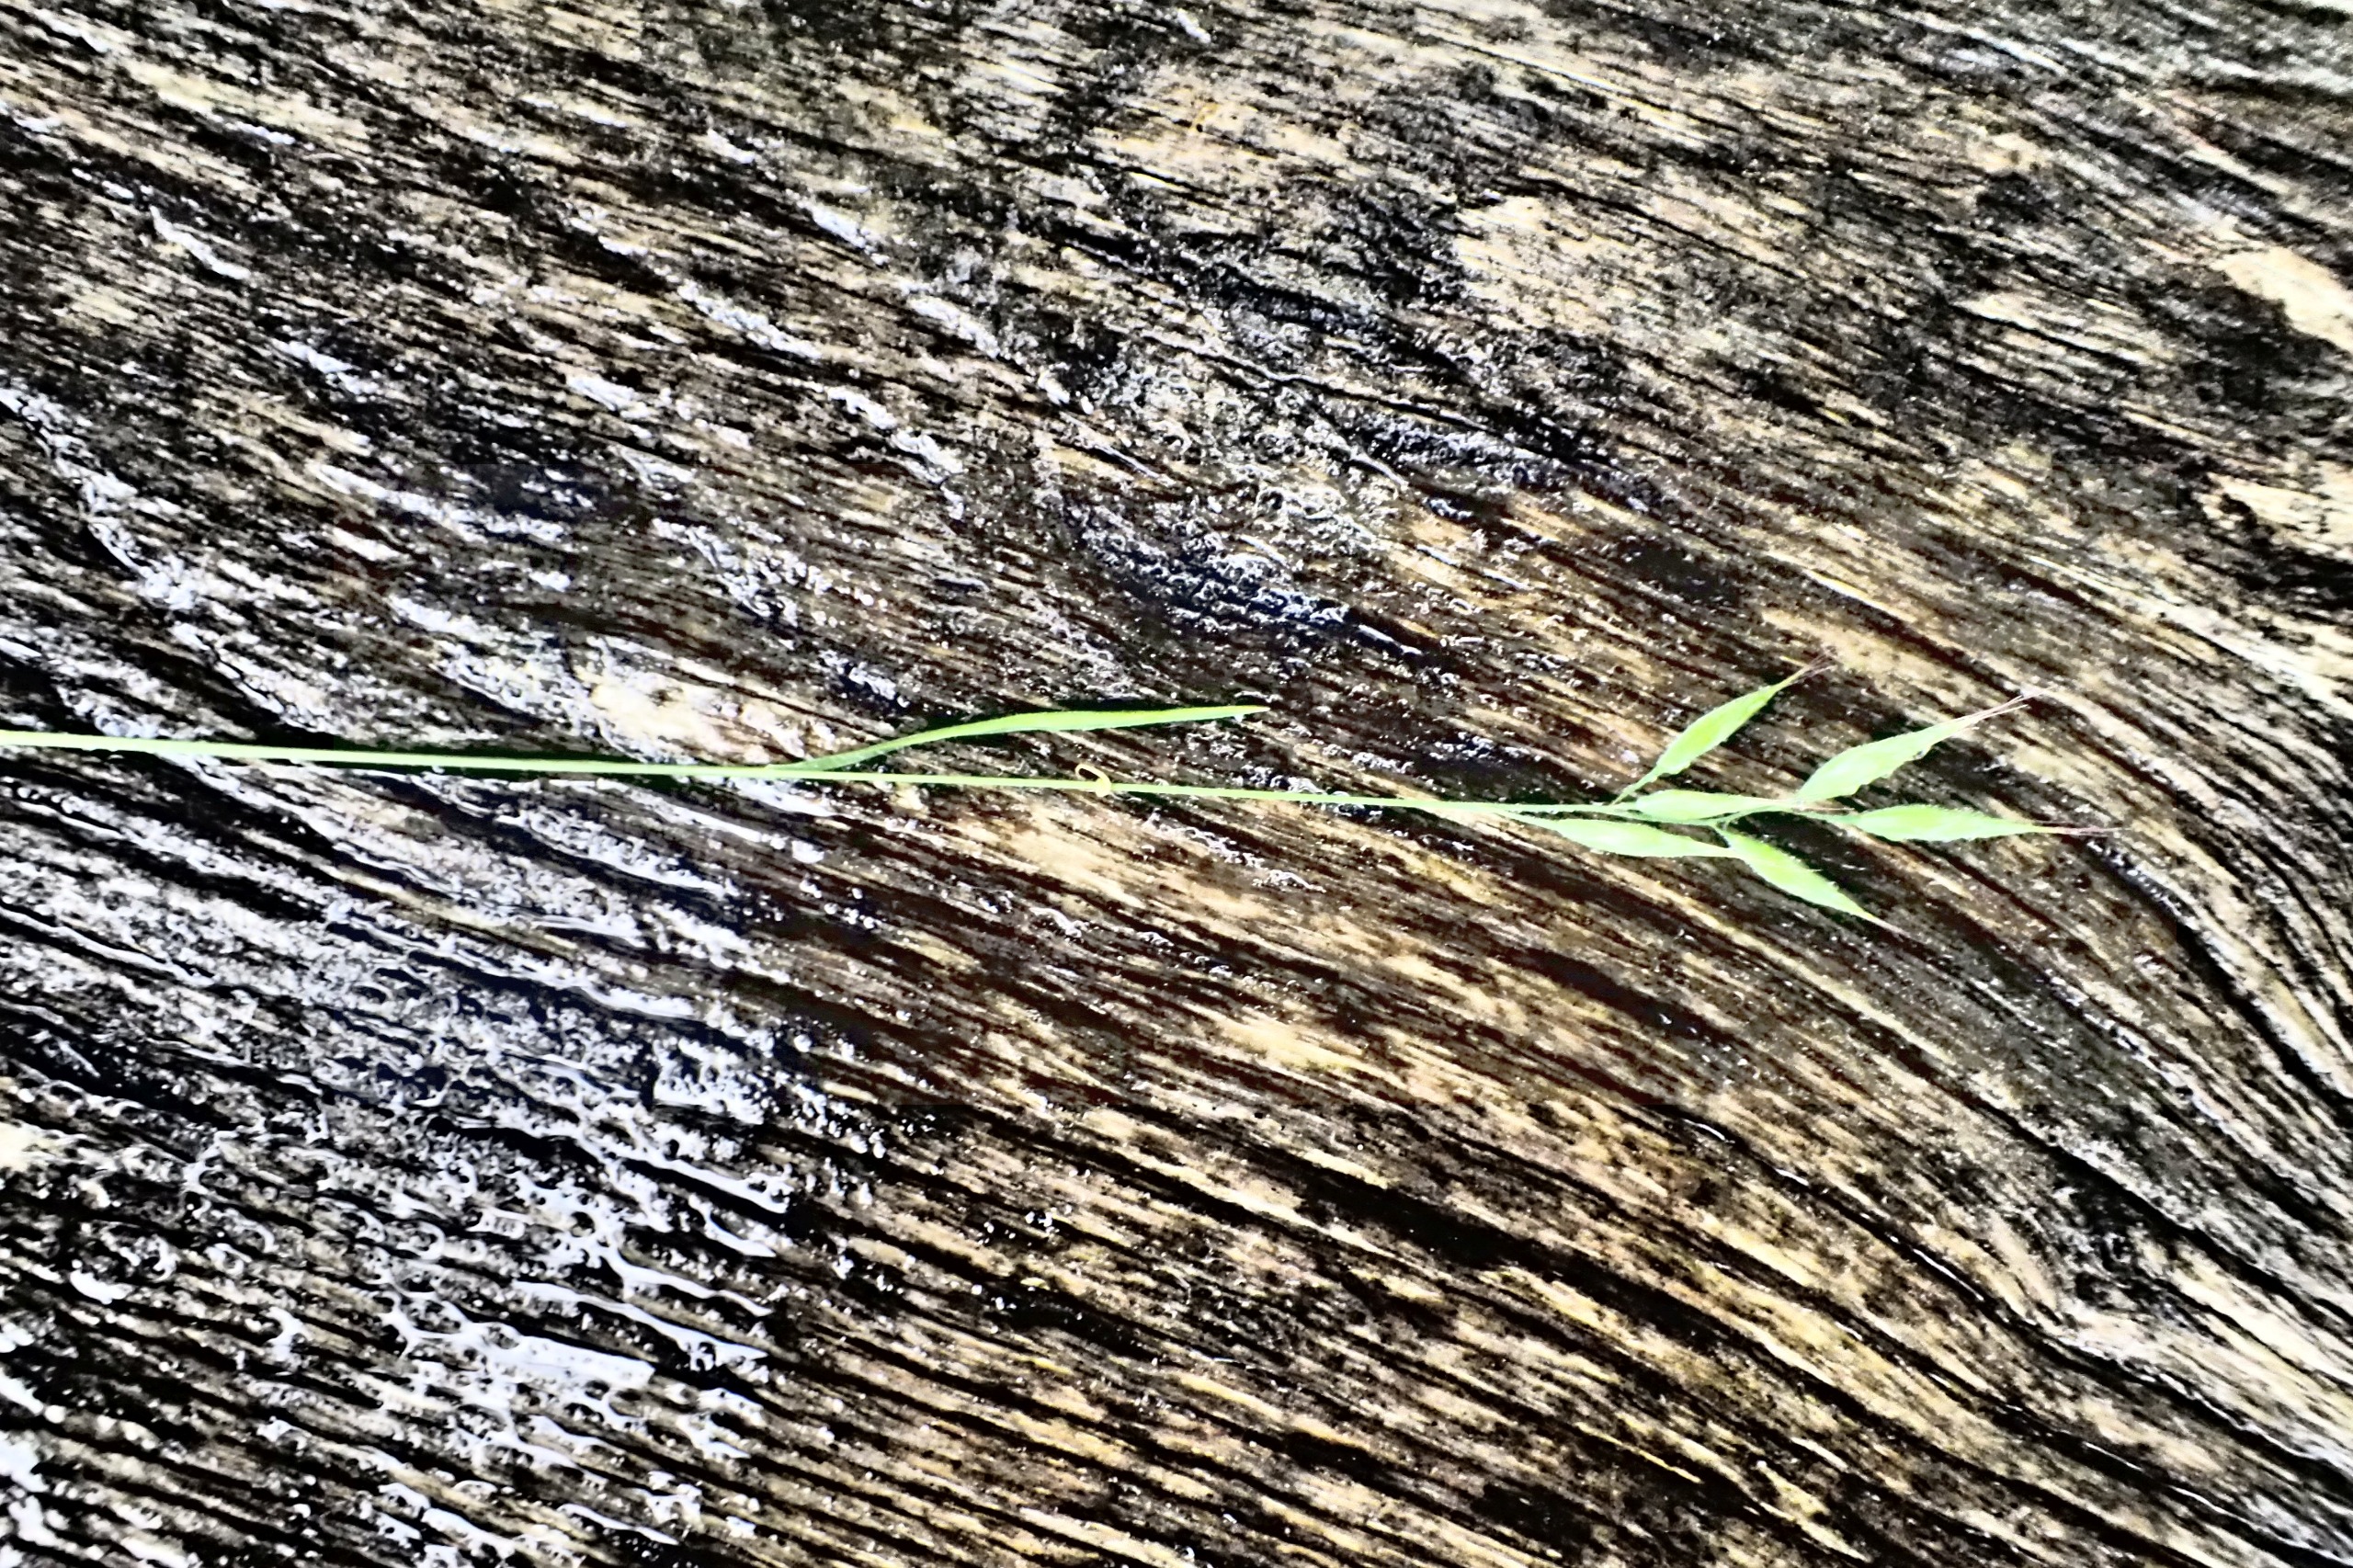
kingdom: Plantae
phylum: Tracheophyta
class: Liliopsida
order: Poales
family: Poaceae
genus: Bromus
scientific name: Bromus hordeaceus
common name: Blød hejre
